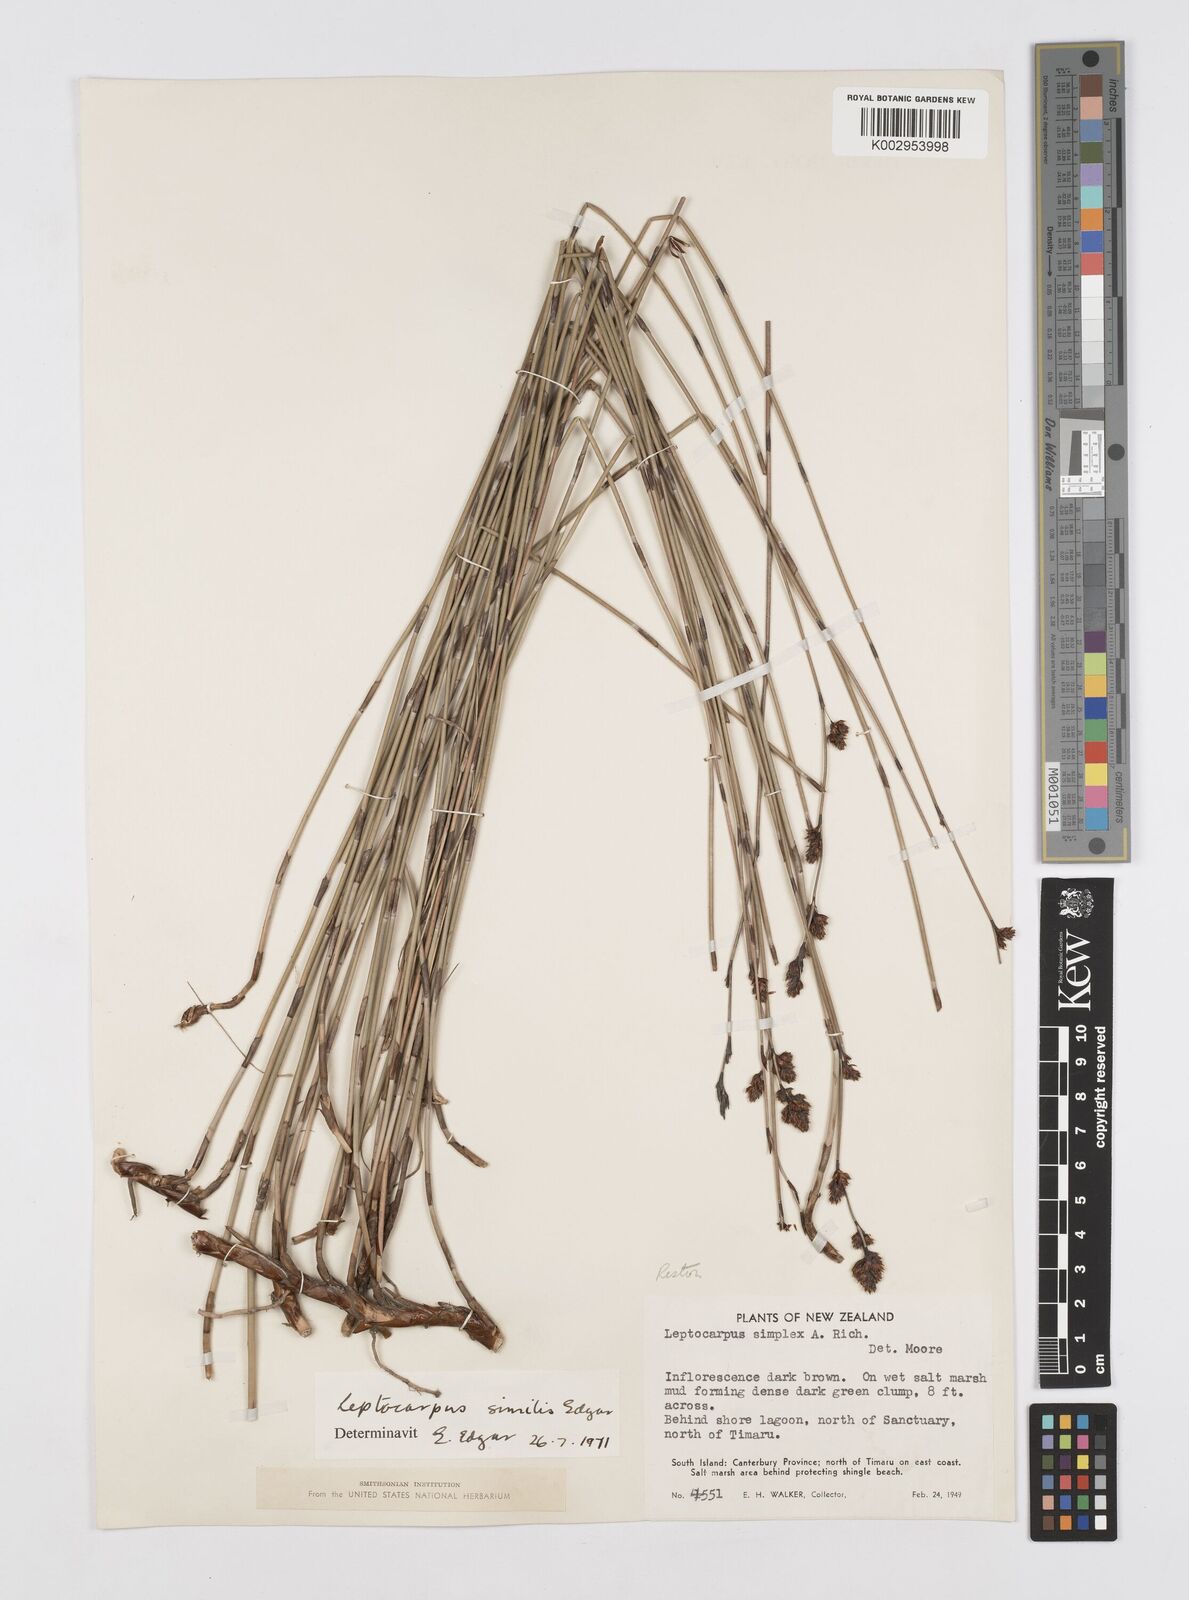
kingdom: Plantae
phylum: Tracheophyta
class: Liliopsida
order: Poales
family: Restionaceae
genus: Apodasmia
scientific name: Apodasmia similis
